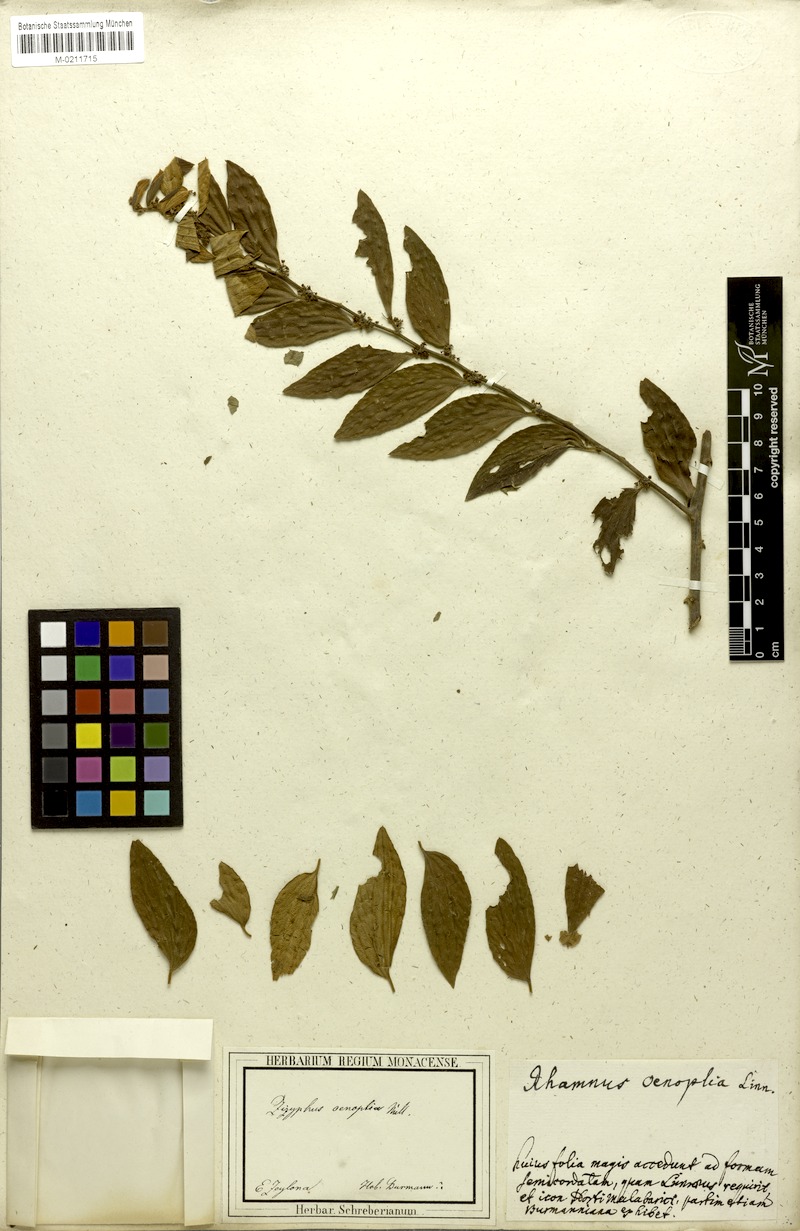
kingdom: Plantae
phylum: Tracheophyta
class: Magnoliopsida
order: Rosales
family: Rhamnaceae
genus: Ziziphus
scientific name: Ziziphus oenopolia
